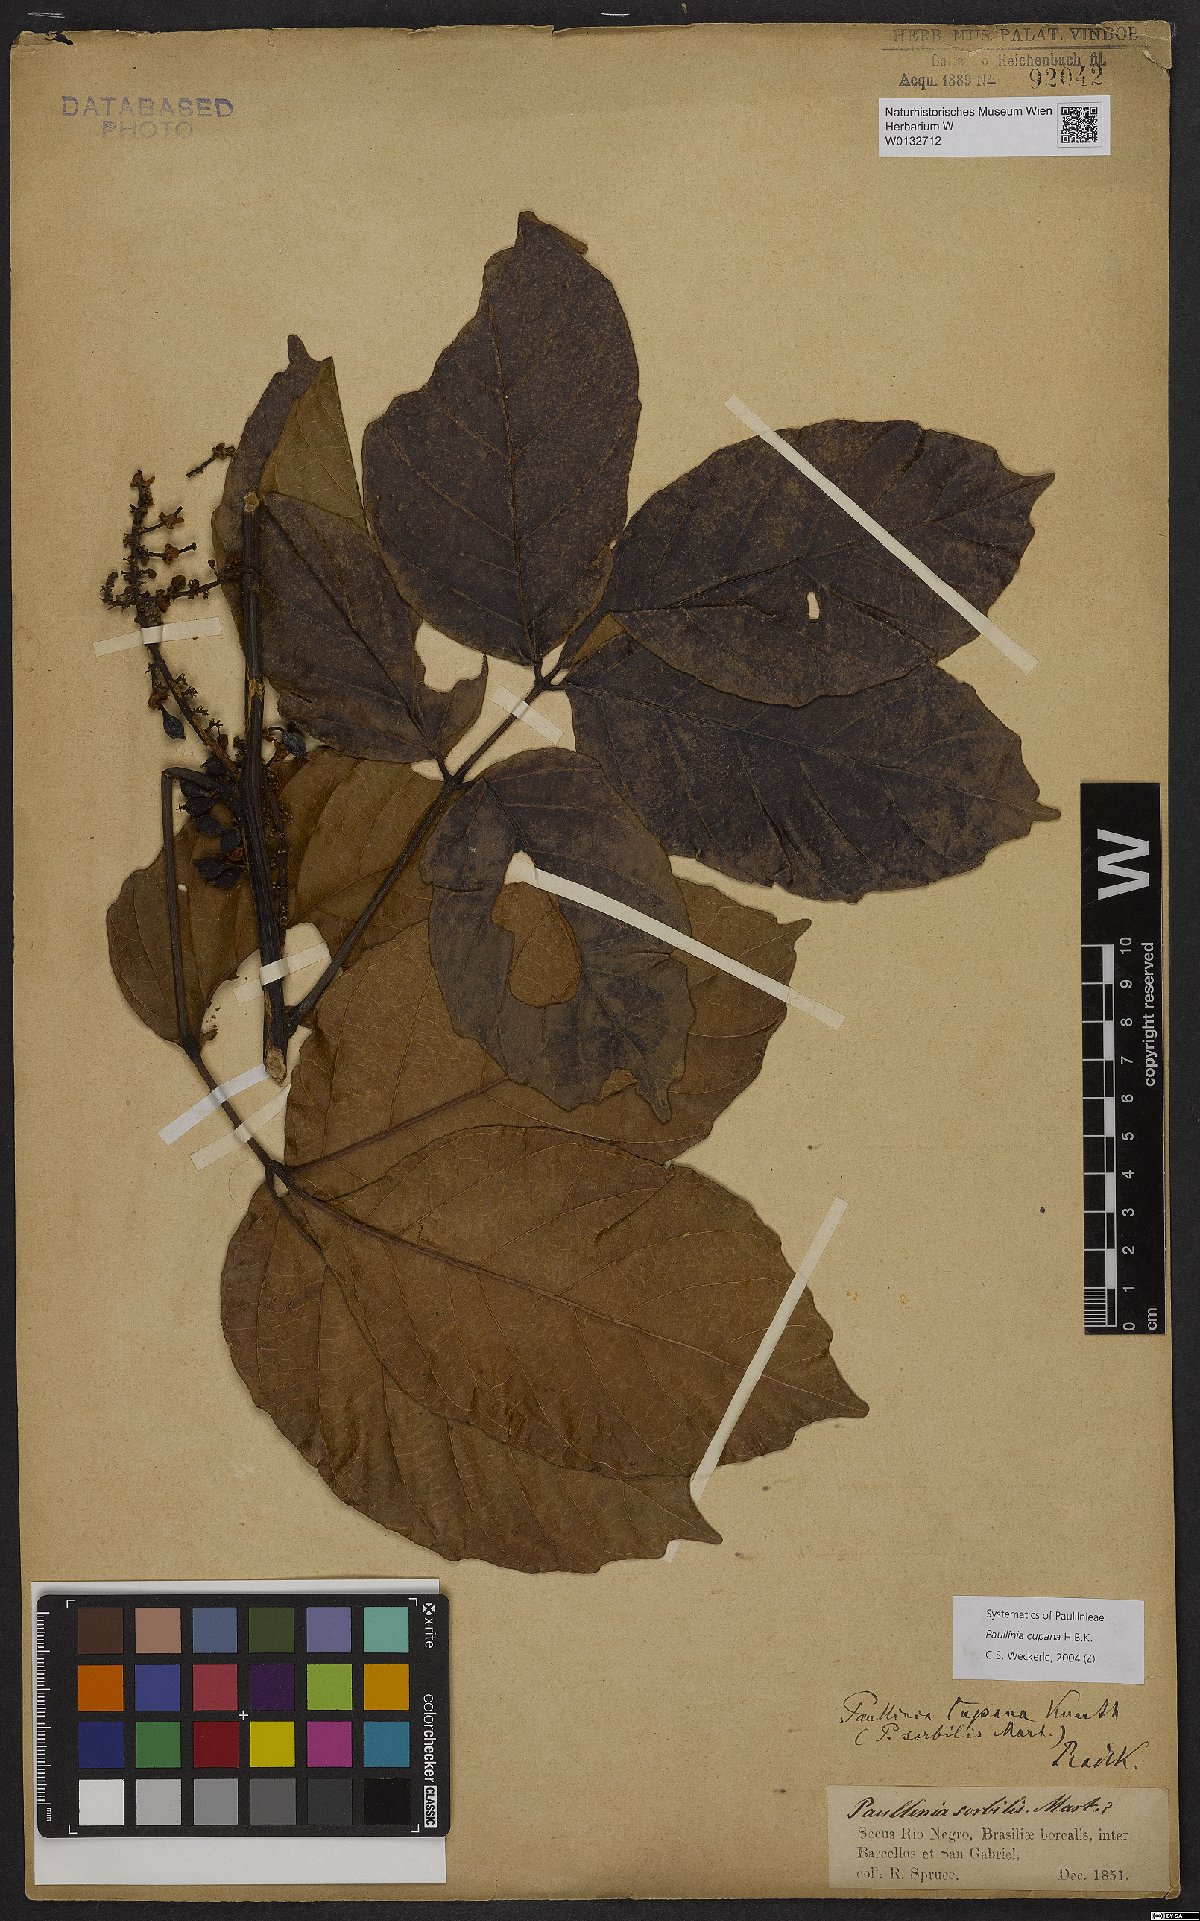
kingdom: Plantae
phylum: Tracheophyta
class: Magnoliopsida
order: Sapindales
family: Sapindaceae
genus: Paullinia
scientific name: Paullinia cupana
